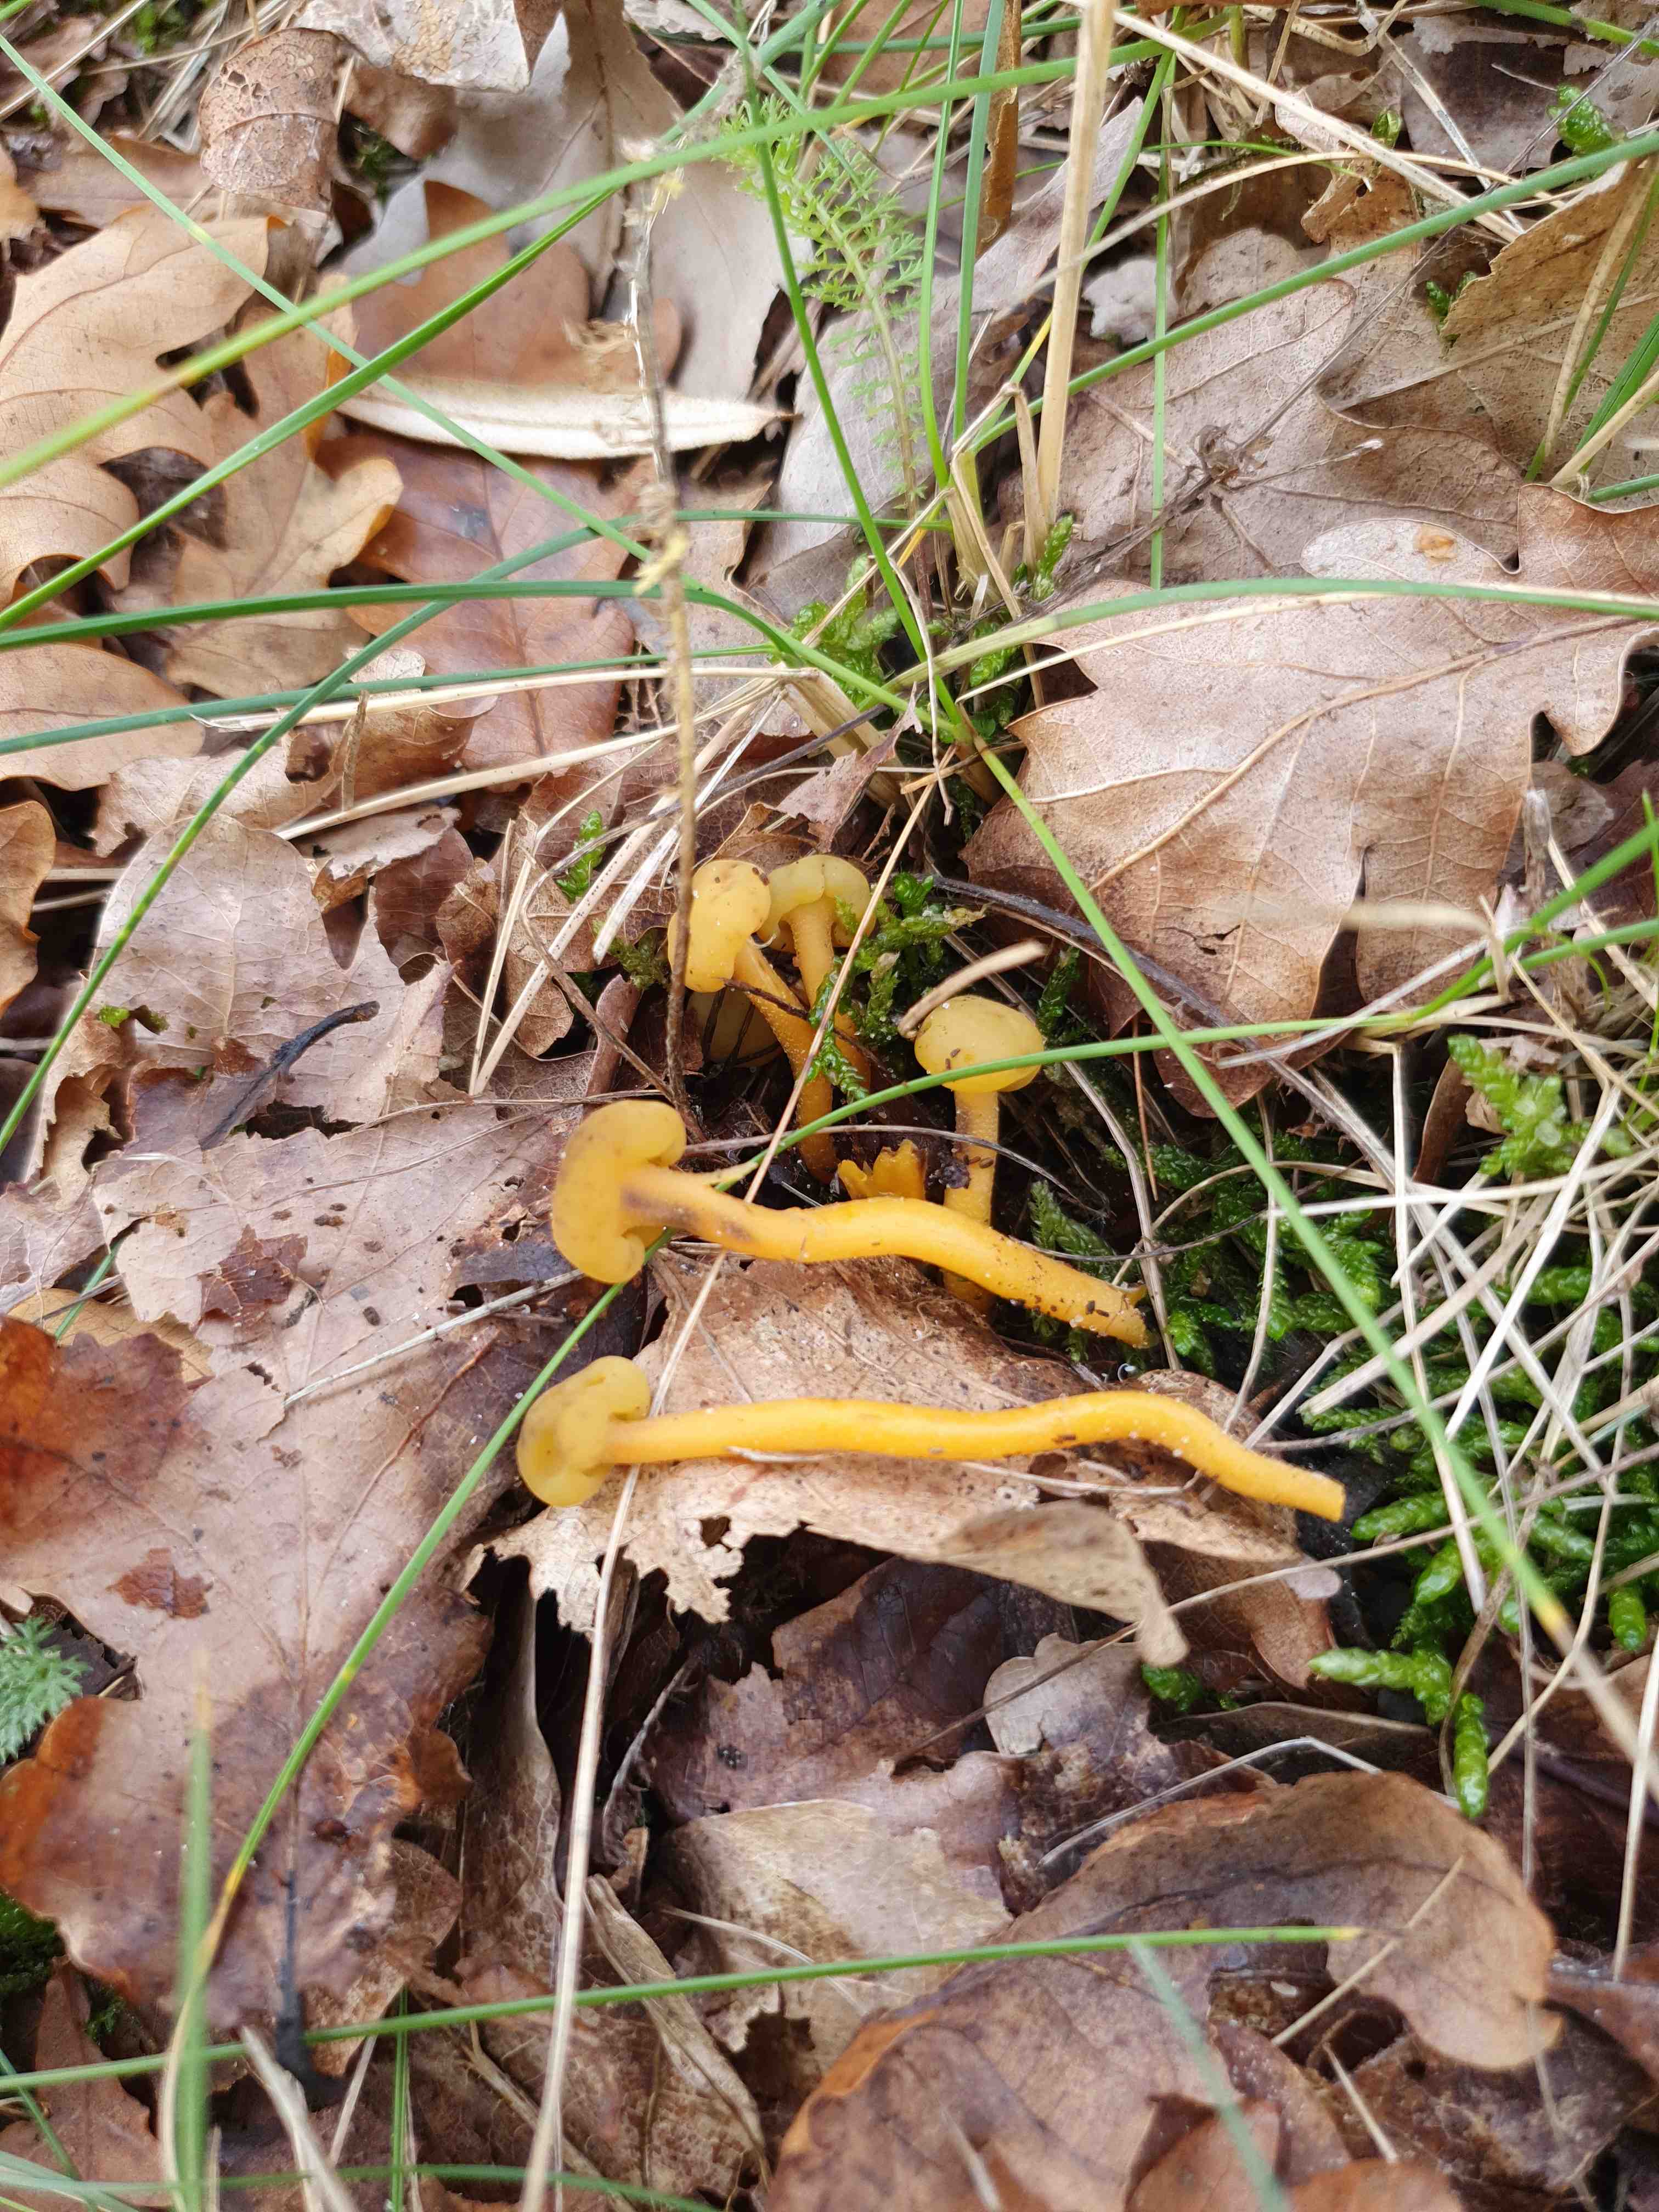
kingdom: Fungi
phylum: Ascomycota
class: Leotiomycetes
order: Leotiales
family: Leotiaceae
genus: Leotia
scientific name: Leotia lubrica
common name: ravsvamp
